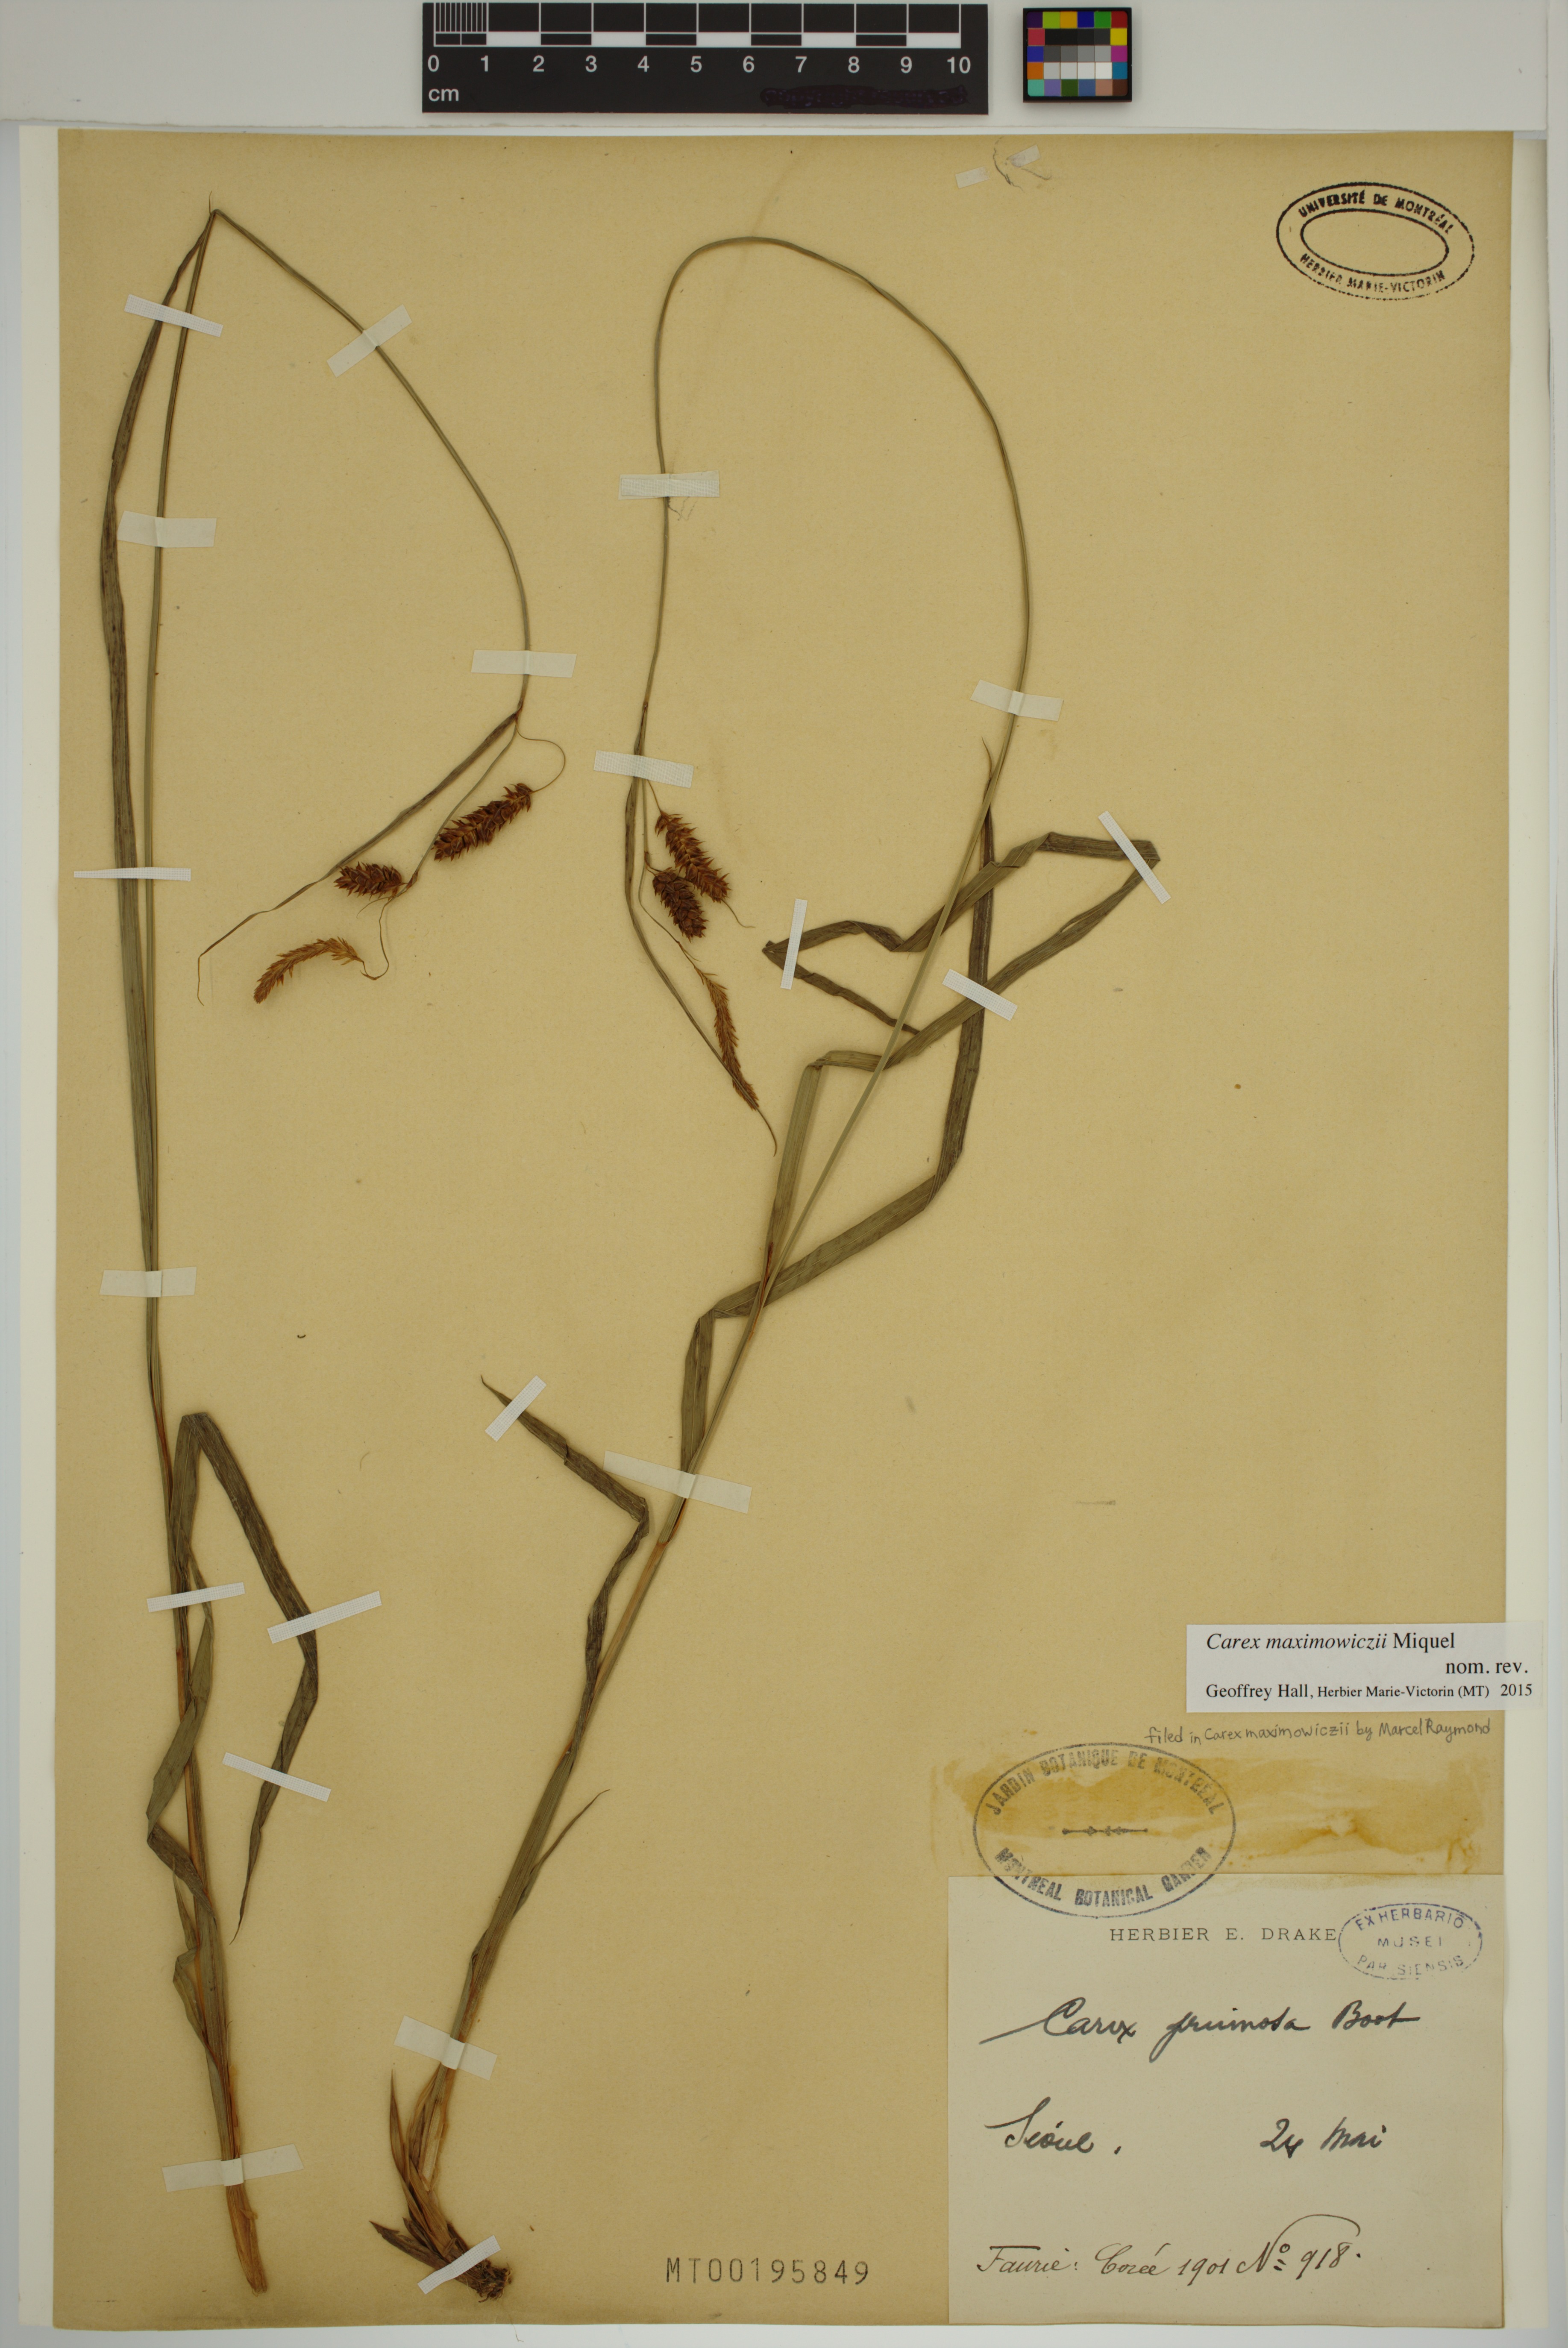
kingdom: Plantae
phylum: Tracheophyta
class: Liliopsida
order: Poales
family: Cyperaceae
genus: Carex
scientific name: Carex maximowiczii
